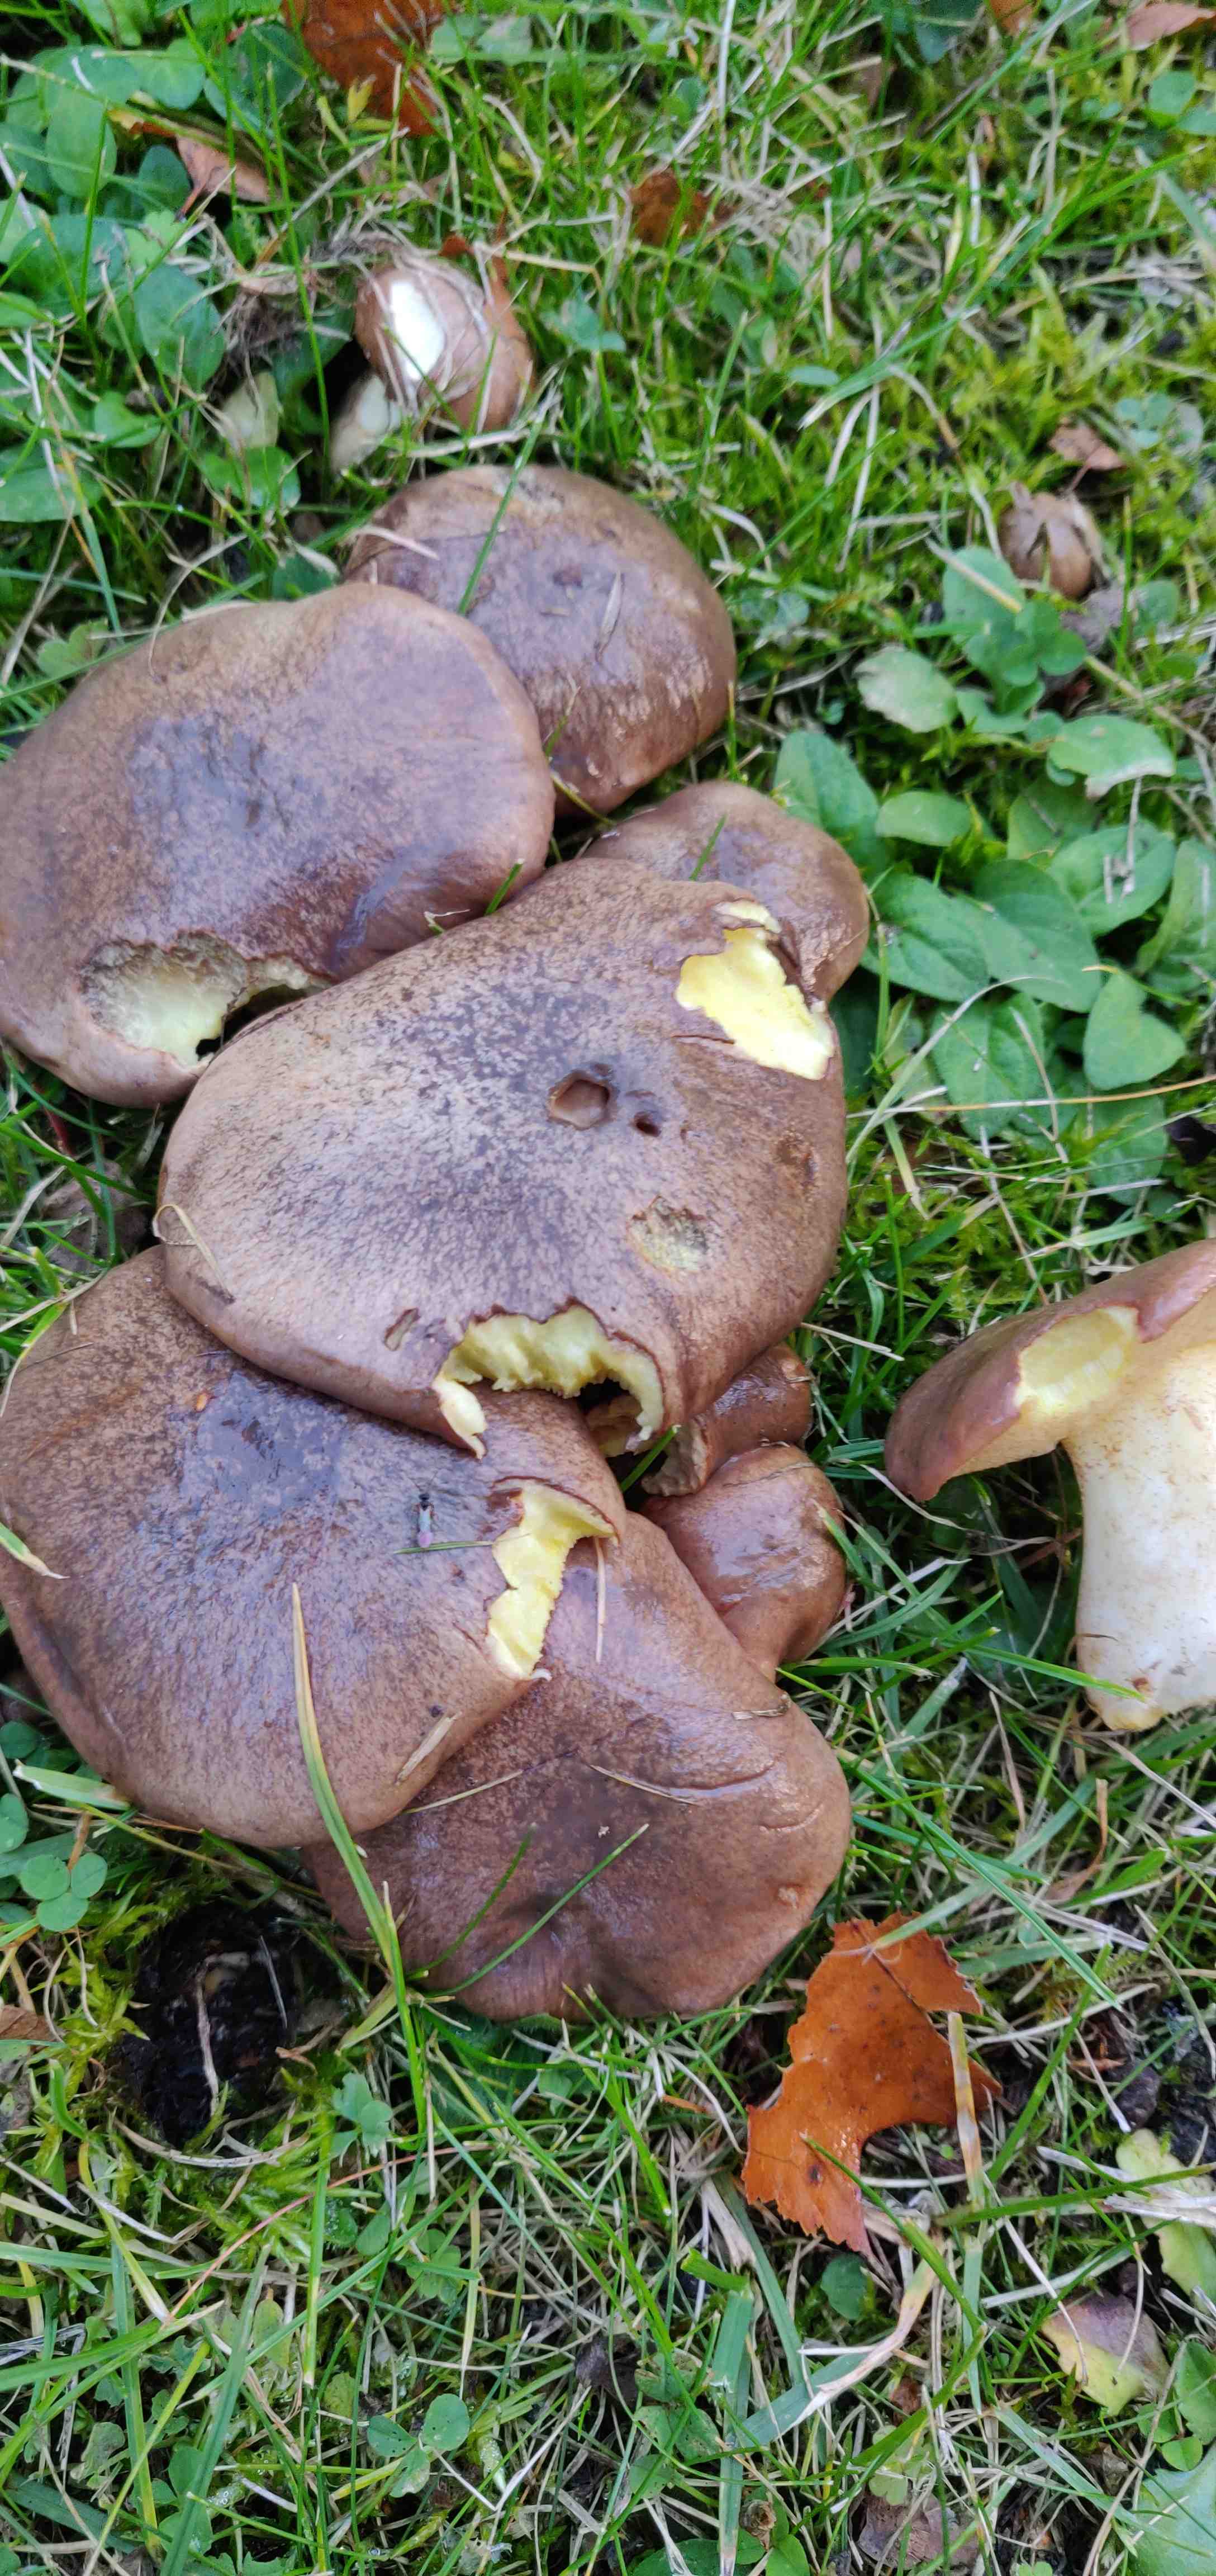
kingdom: Fungi
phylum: Basidiomycota
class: Agaricomycetes
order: Boletales
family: Suillaceae
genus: Suillus
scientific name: Suillus collinitus
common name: rosafodet slimrørhat
